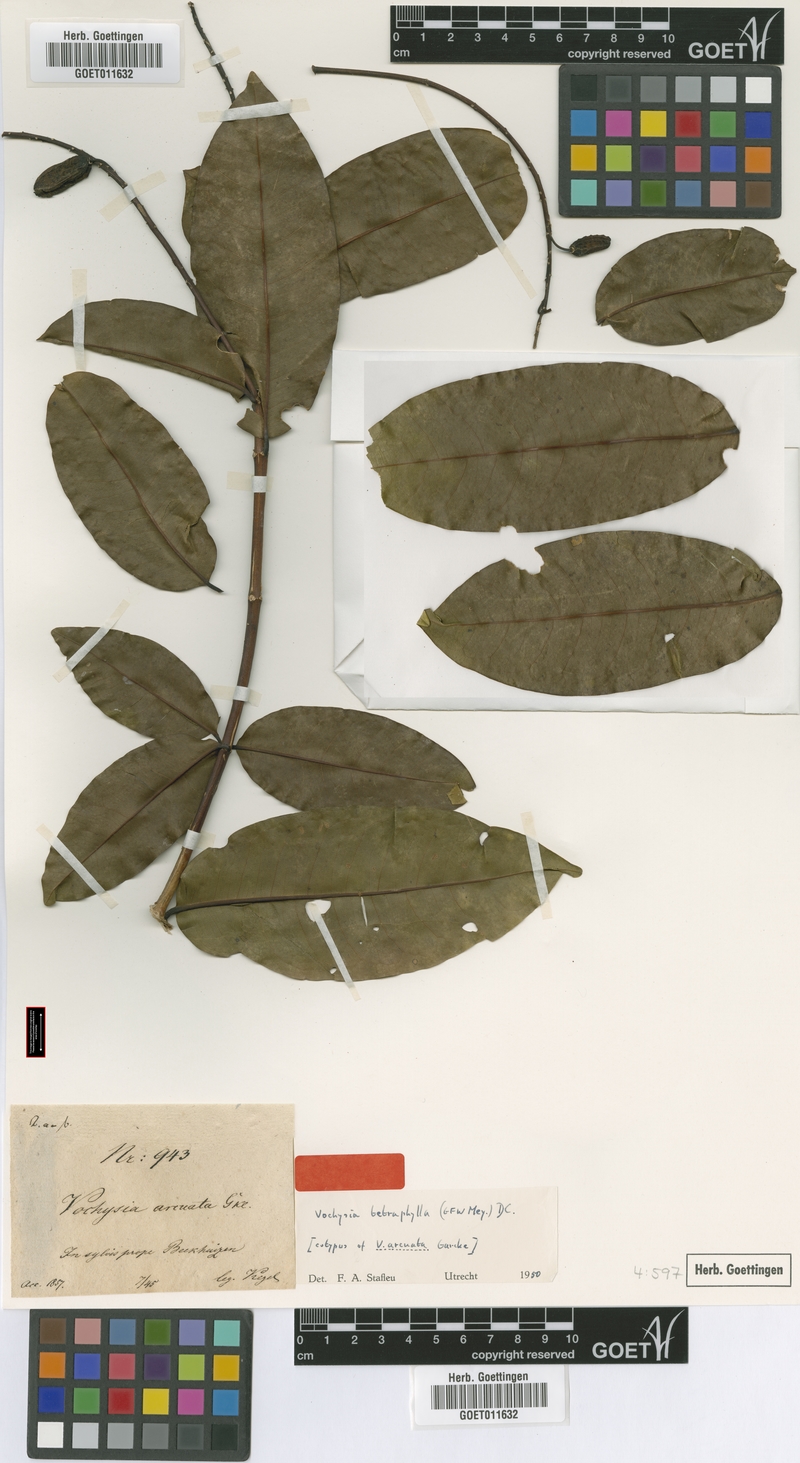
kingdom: Plantae
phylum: Tracheophyta
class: Magnoliopsida
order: Myrtales
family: Vochysiaceae
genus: Vochysia
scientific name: Vochysia tetraphylla
